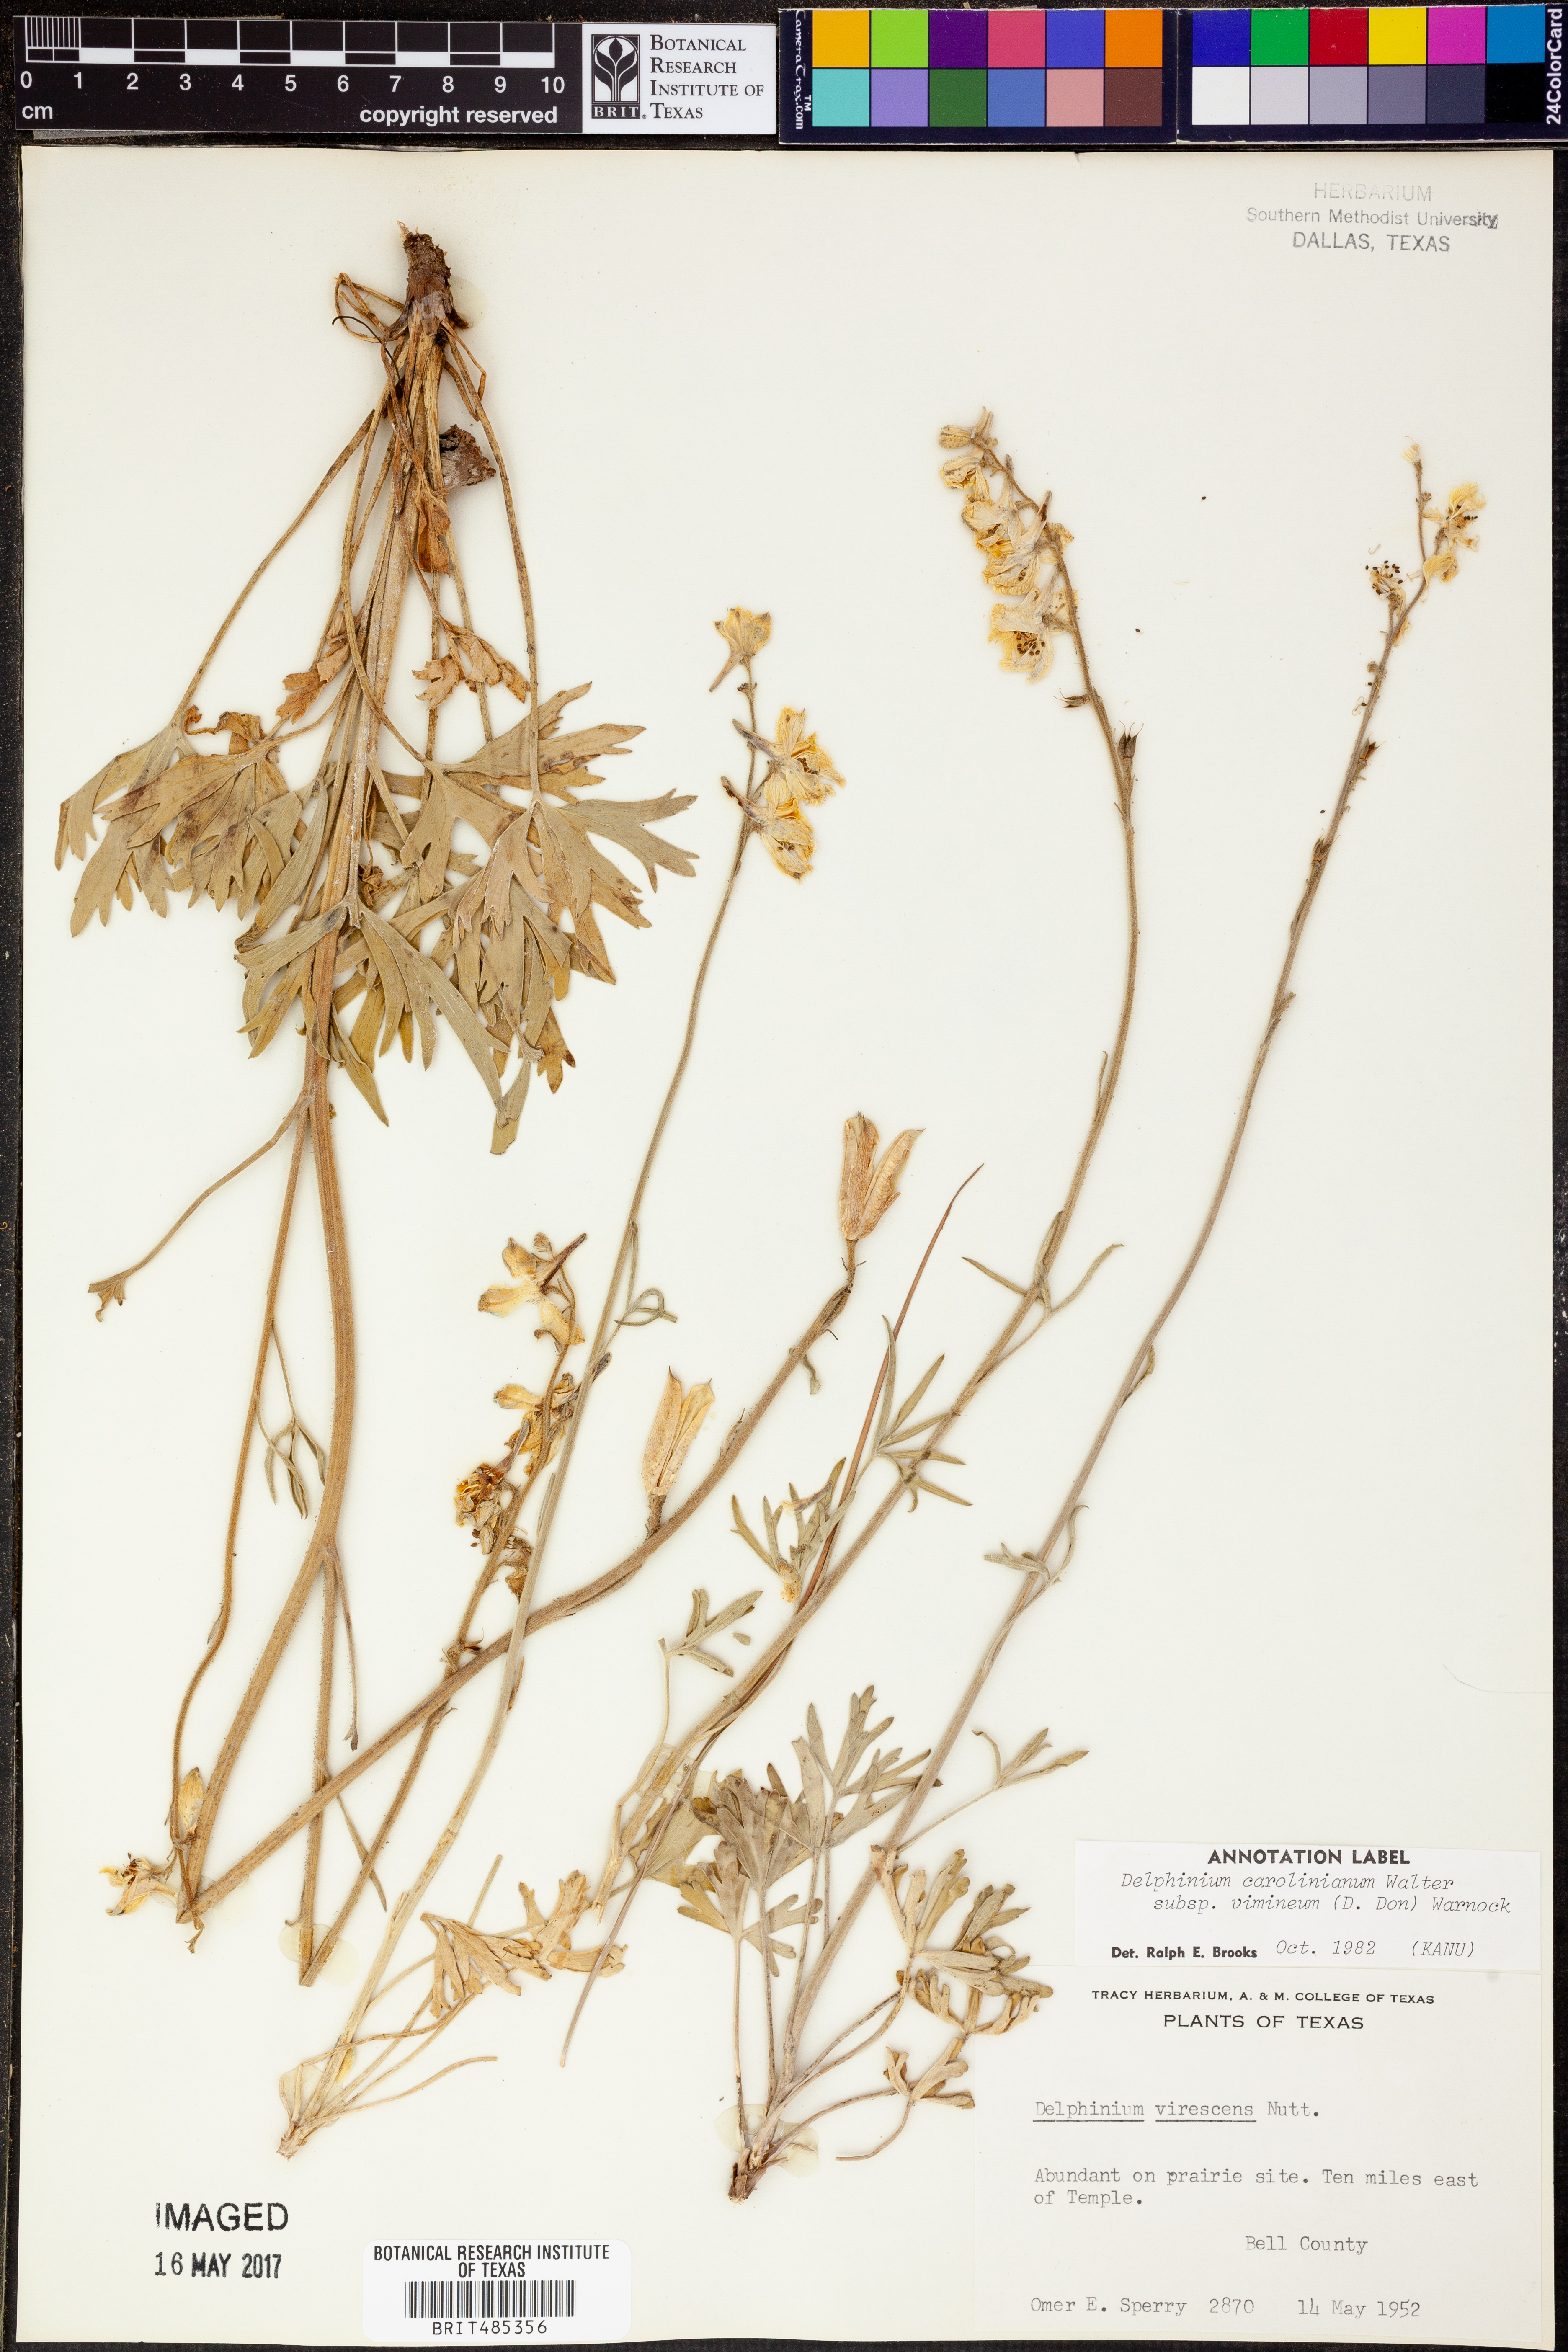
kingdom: Plantae
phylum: Tracheophyta
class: Magnoliopsida
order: Ranunculales
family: Ranunculaceae
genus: Delphinium
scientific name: Delphinium carolinianum
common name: Carolina larkspur
